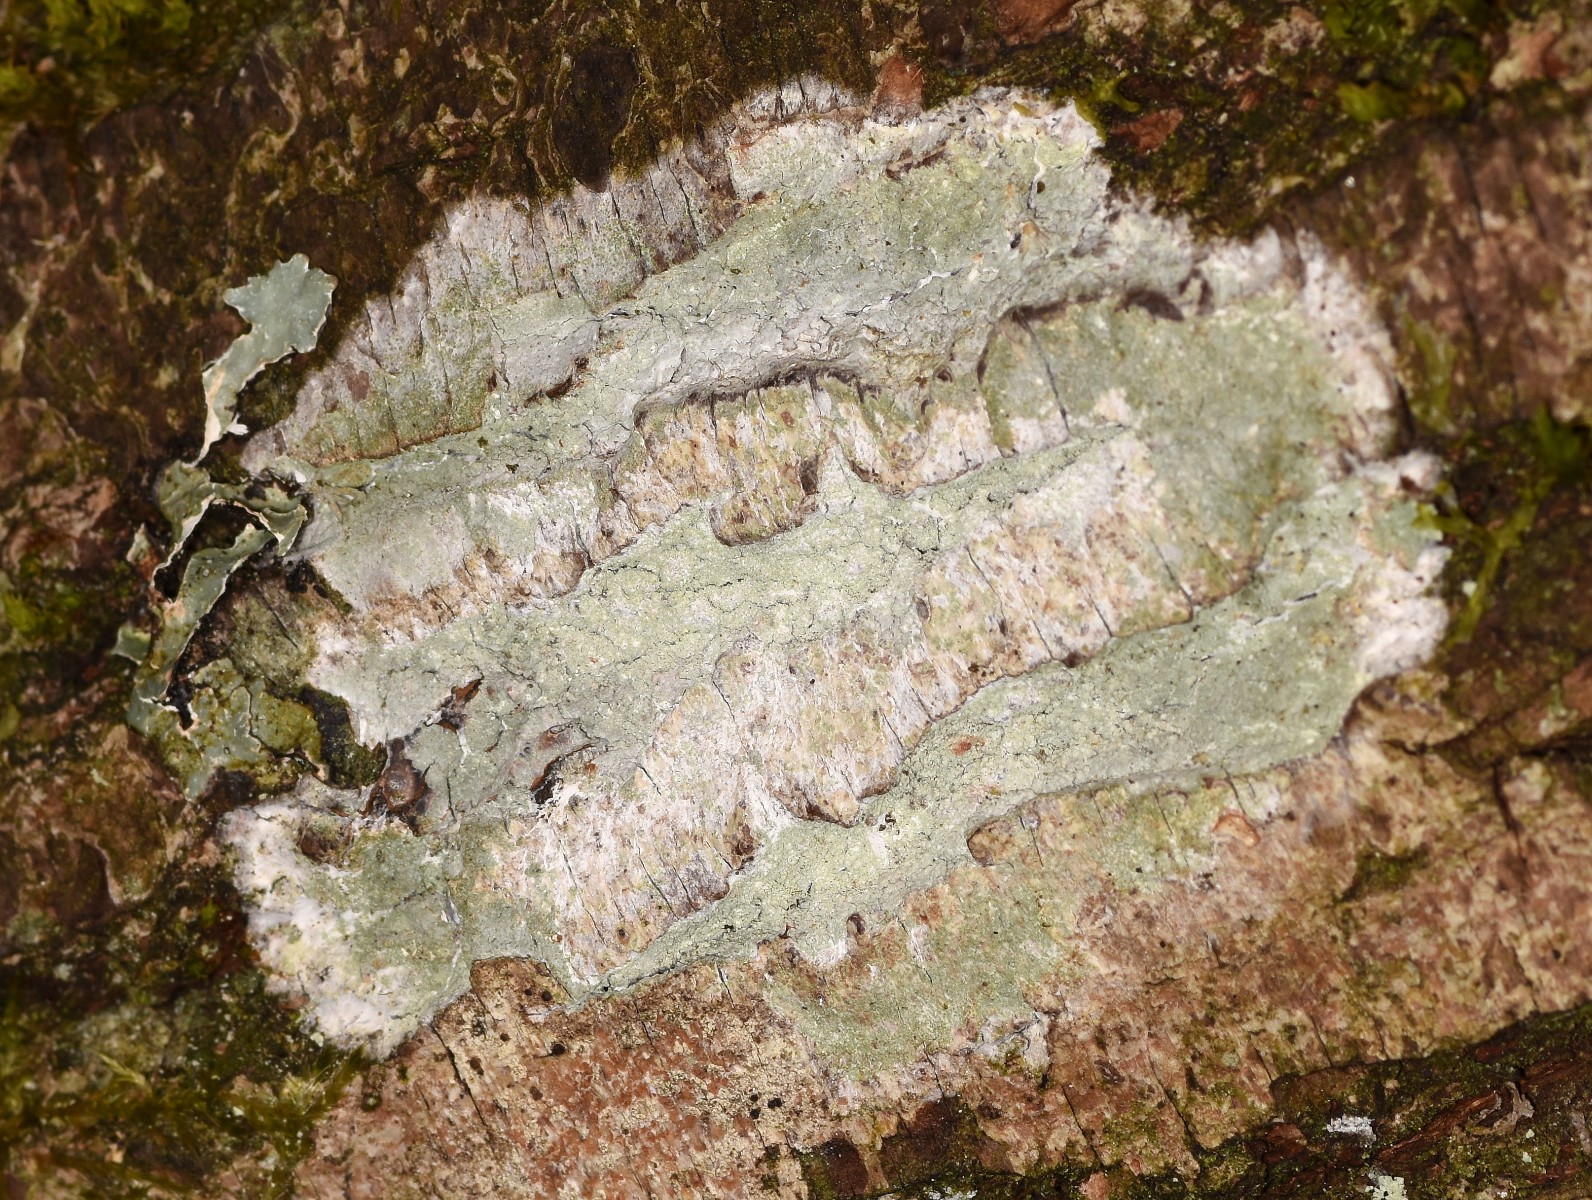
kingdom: Fungi
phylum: Ascomycota
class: Lecanoromycetes
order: Ostropales
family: Phlyctidaceae
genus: Phlyctis
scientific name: Phlyctis argena
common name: almindelig sølvlav
